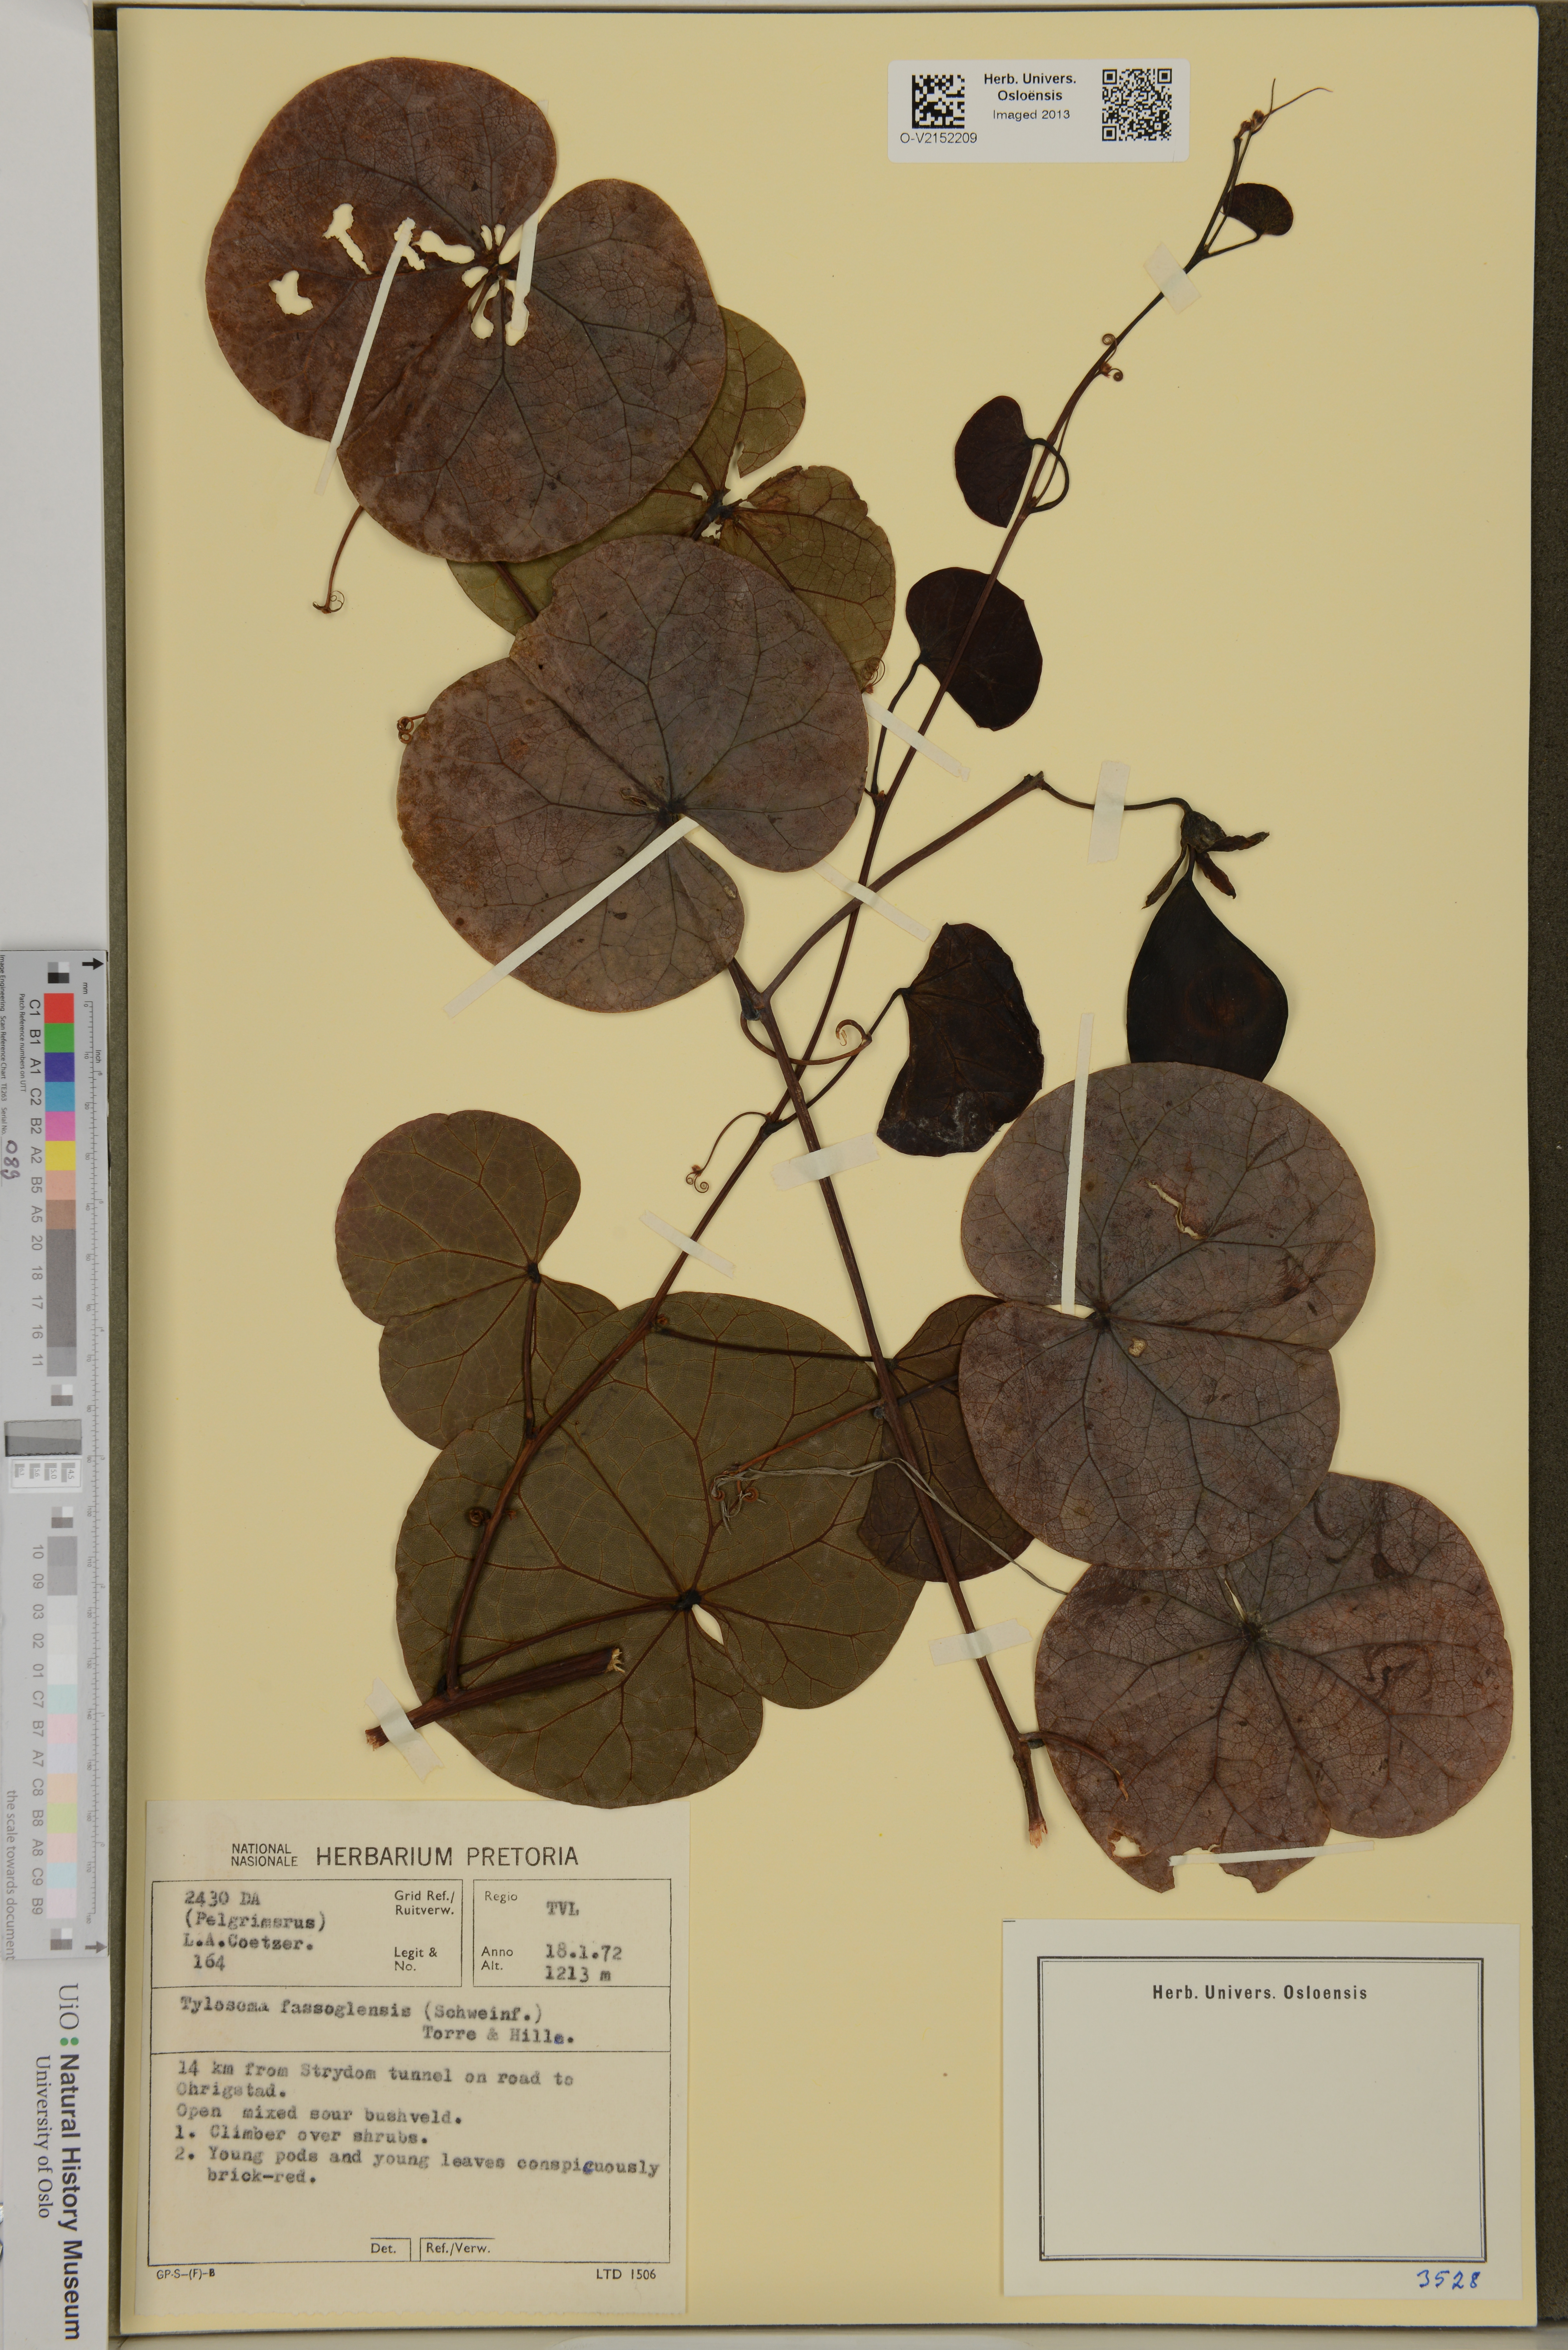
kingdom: Plantae
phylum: Tracheophyta
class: Magnoliopsida
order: Fabales
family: Fabaceae
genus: Tylosema
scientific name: Tylosema fassoglense
